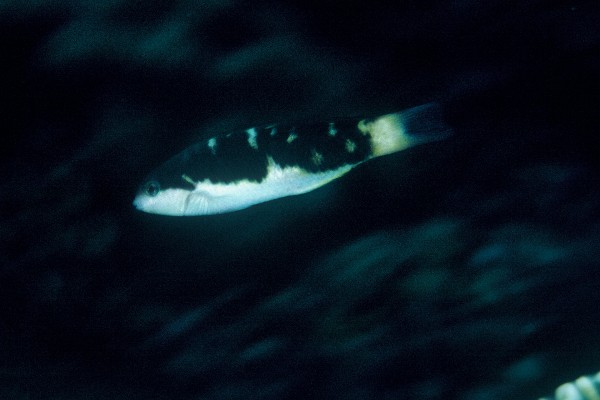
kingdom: Animalia
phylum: Chordata
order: Perciformes
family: Labridae
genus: Thalassoma
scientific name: Thalassoma jansenii
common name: Jansen's wrasse
